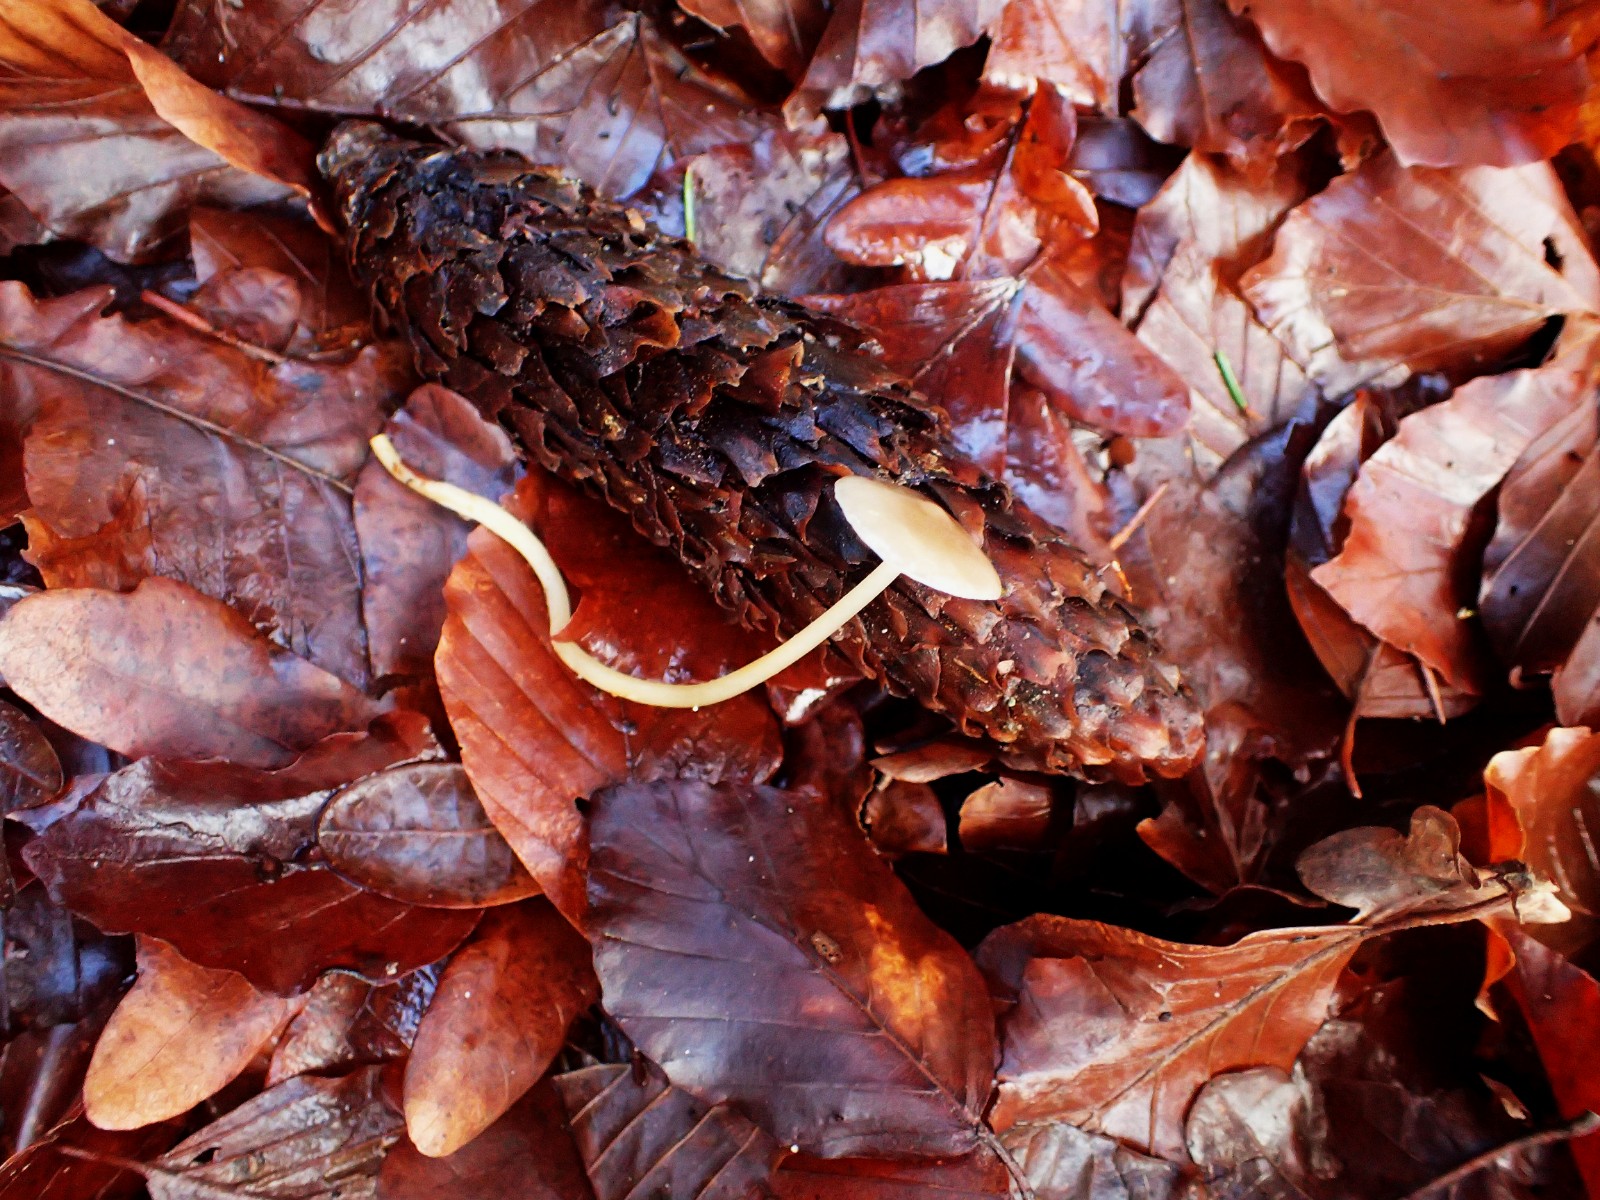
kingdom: Fungi
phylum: Basidiomycota
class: Agaricomycetes
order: Agaricales
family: Physalacriaceae
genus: Strobilurus
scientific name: Strobilurus esculentus
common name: gran-koglehat
